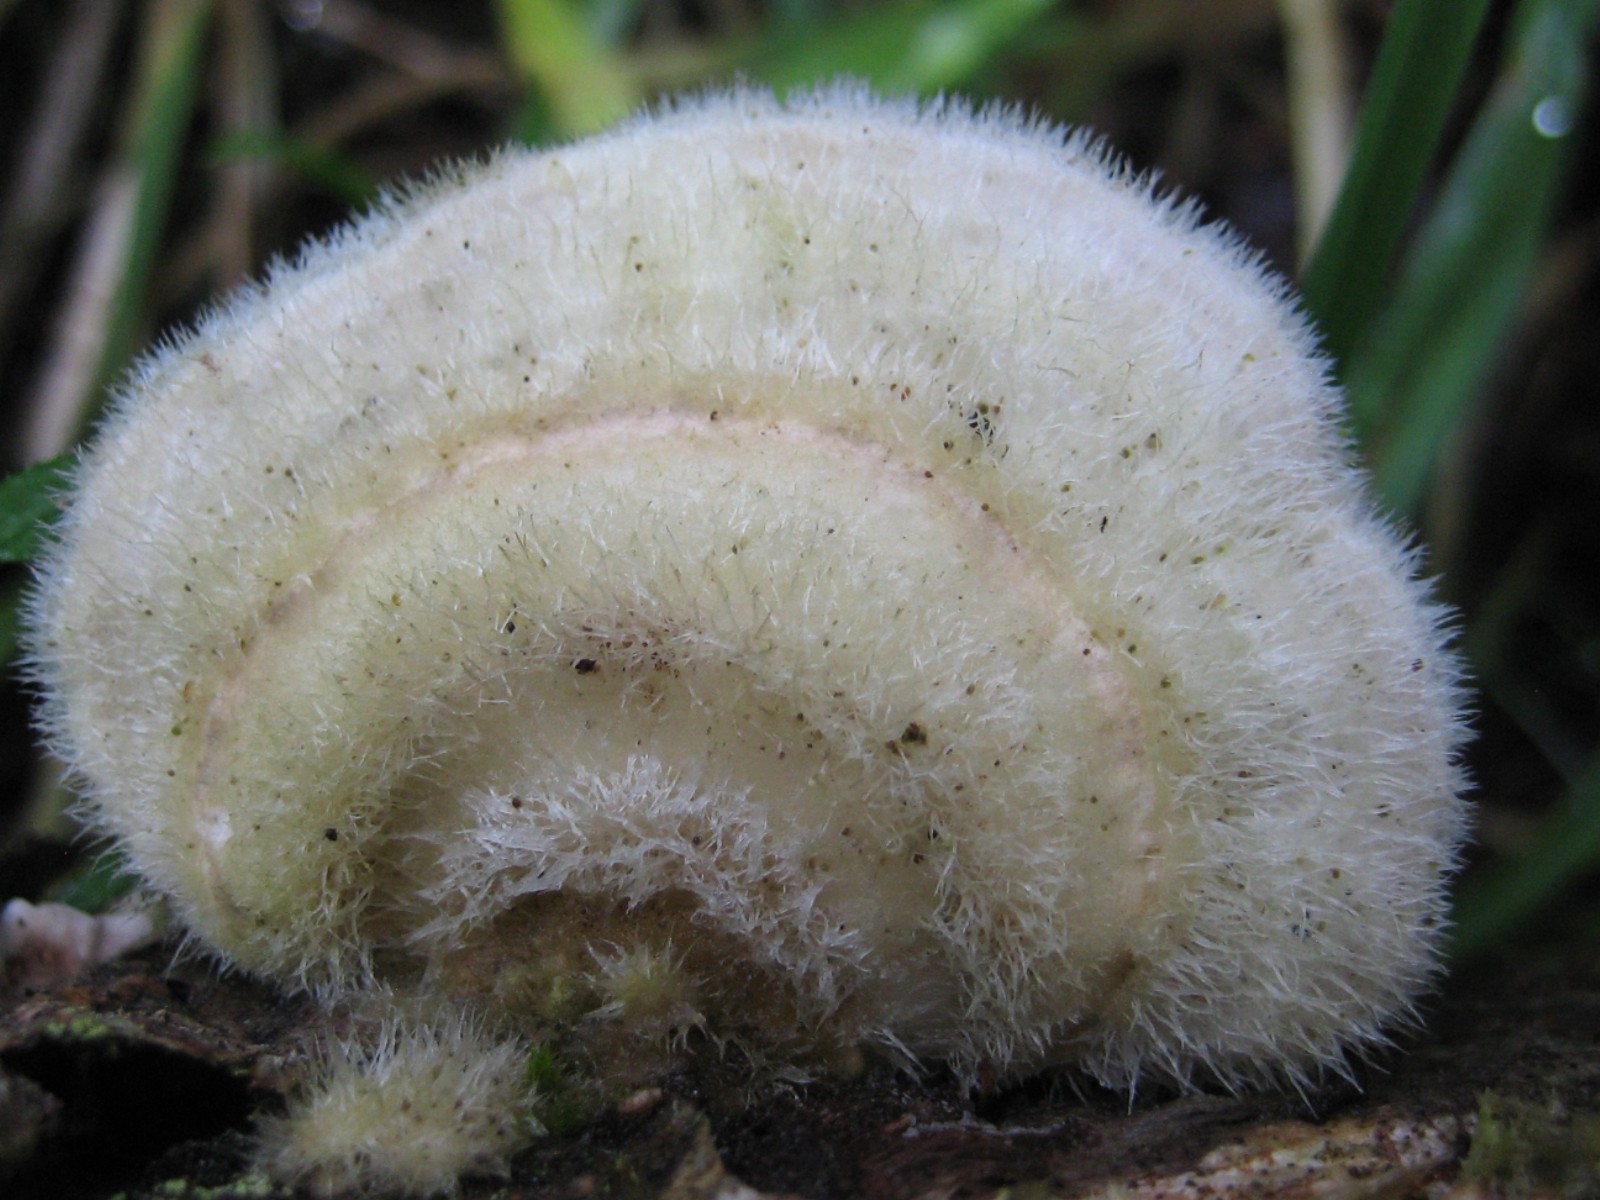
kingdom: Fungi
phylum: Basidiomycota
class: Agaricomycetes
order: Polyporales
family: Polyporaceae
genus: Trametes
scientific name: Trametes hirsuta
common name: håret læderporesvamp
